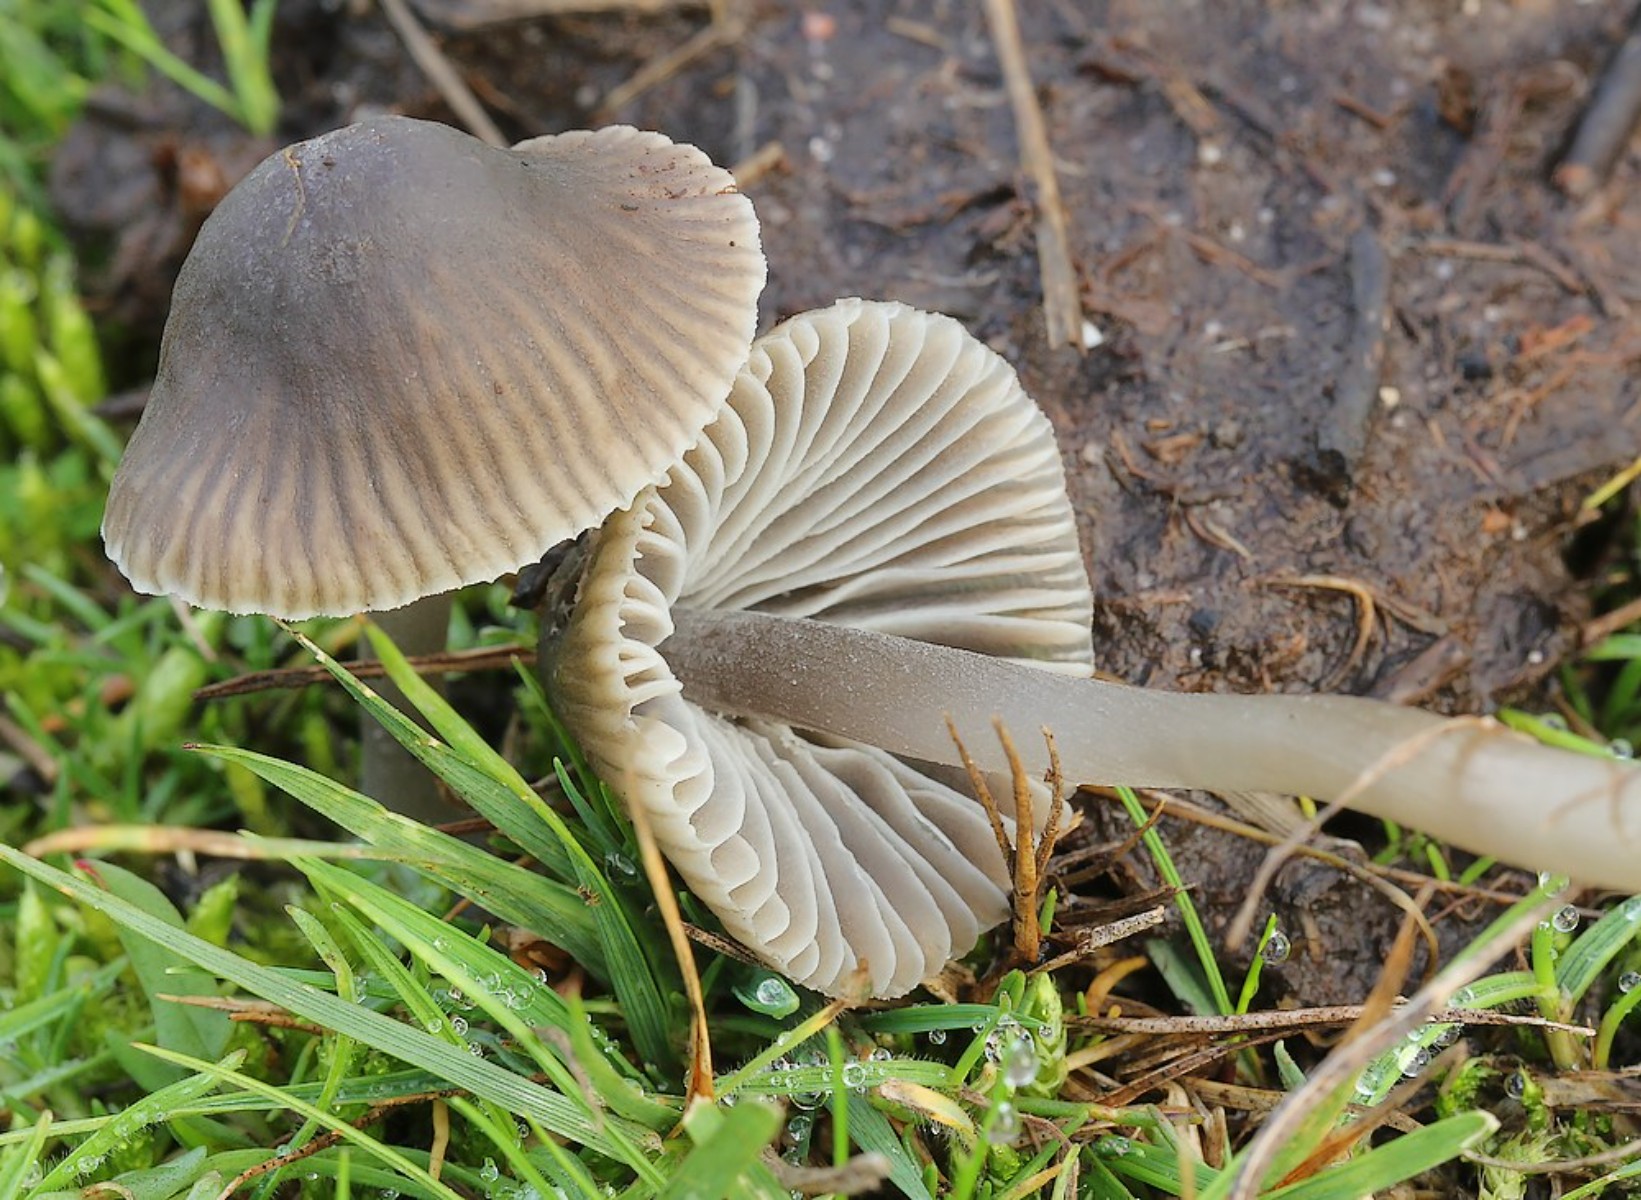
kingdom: Fungi
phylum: Basidiomycota
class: Agaricomycetes
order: Agaricales
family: Mycenaceae
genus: Mycena
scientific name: Mycena aetites
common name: plæne-huesvamp
